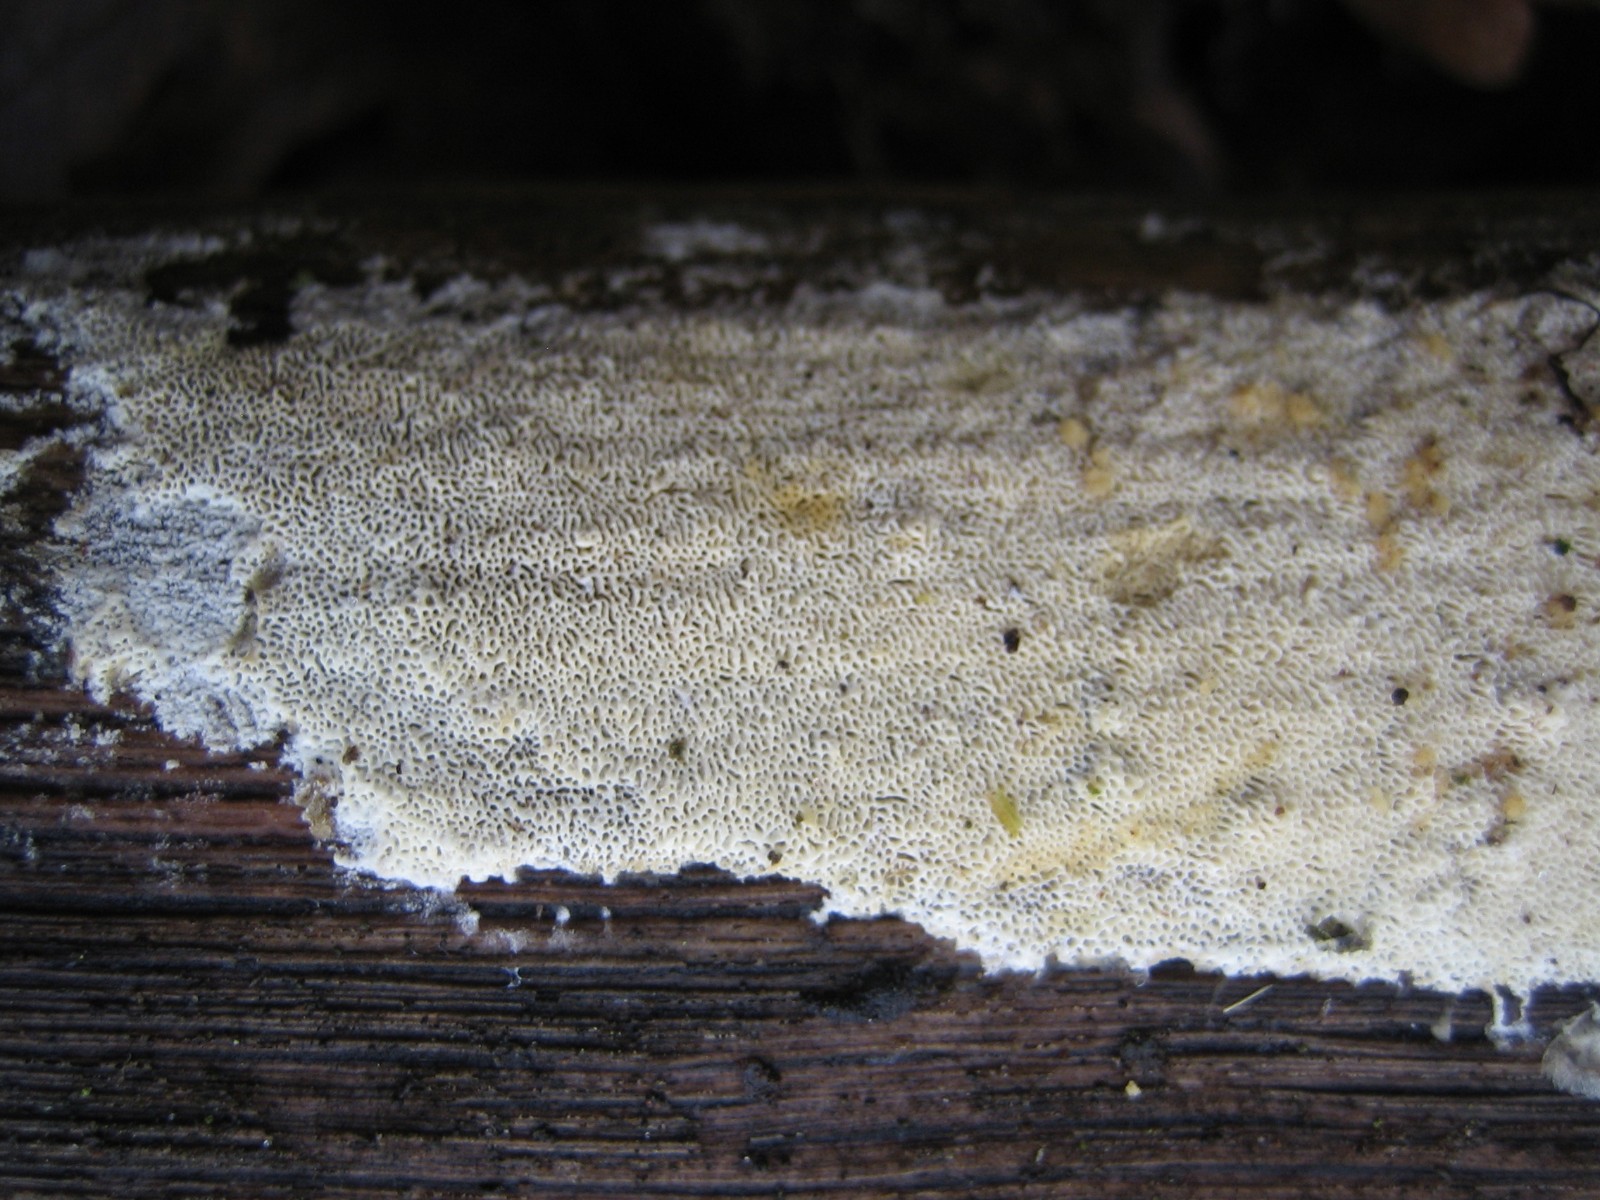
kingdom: Fungi
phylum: Basidiomycota
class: Agaricomycetes
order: Polyporales
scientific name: Polyporales
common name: poresvampordenen
